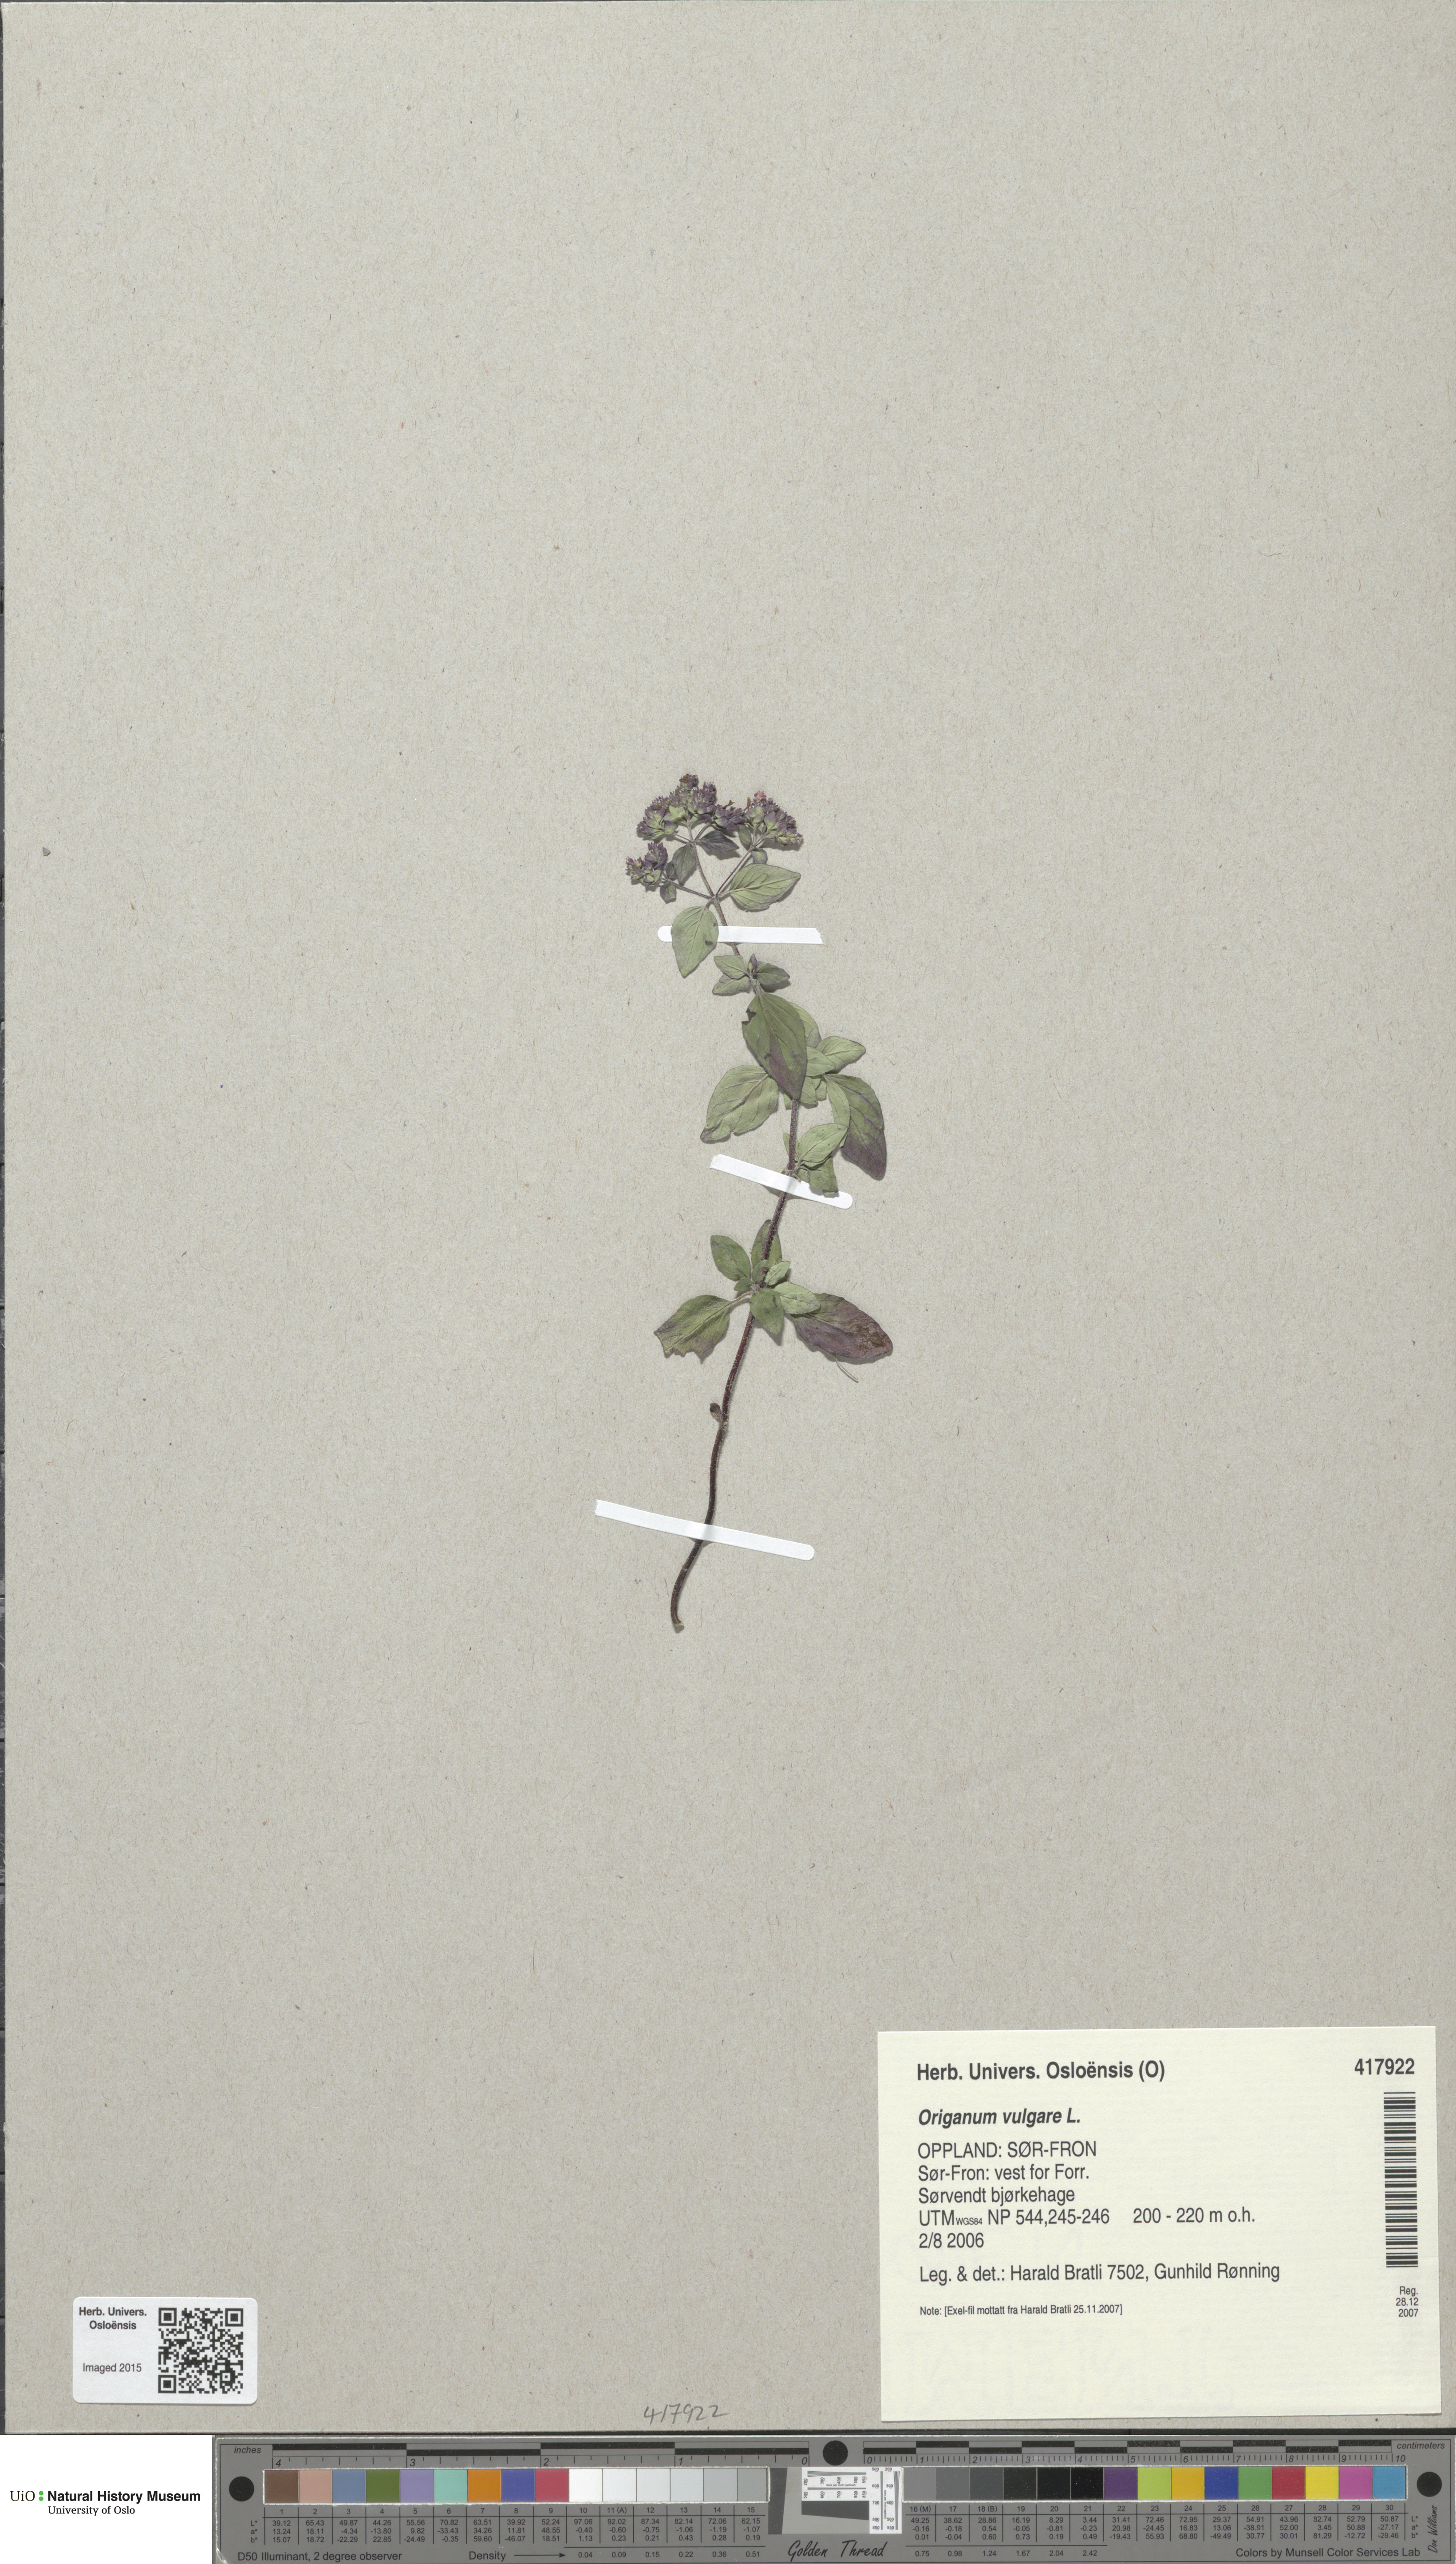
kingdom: Plantae
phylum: Tracheophyta
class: Magnoliopsida
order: Lamiales
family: Lamiaceae
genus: Origanum
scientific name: Origanum vulgare
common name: Wild marjoram
